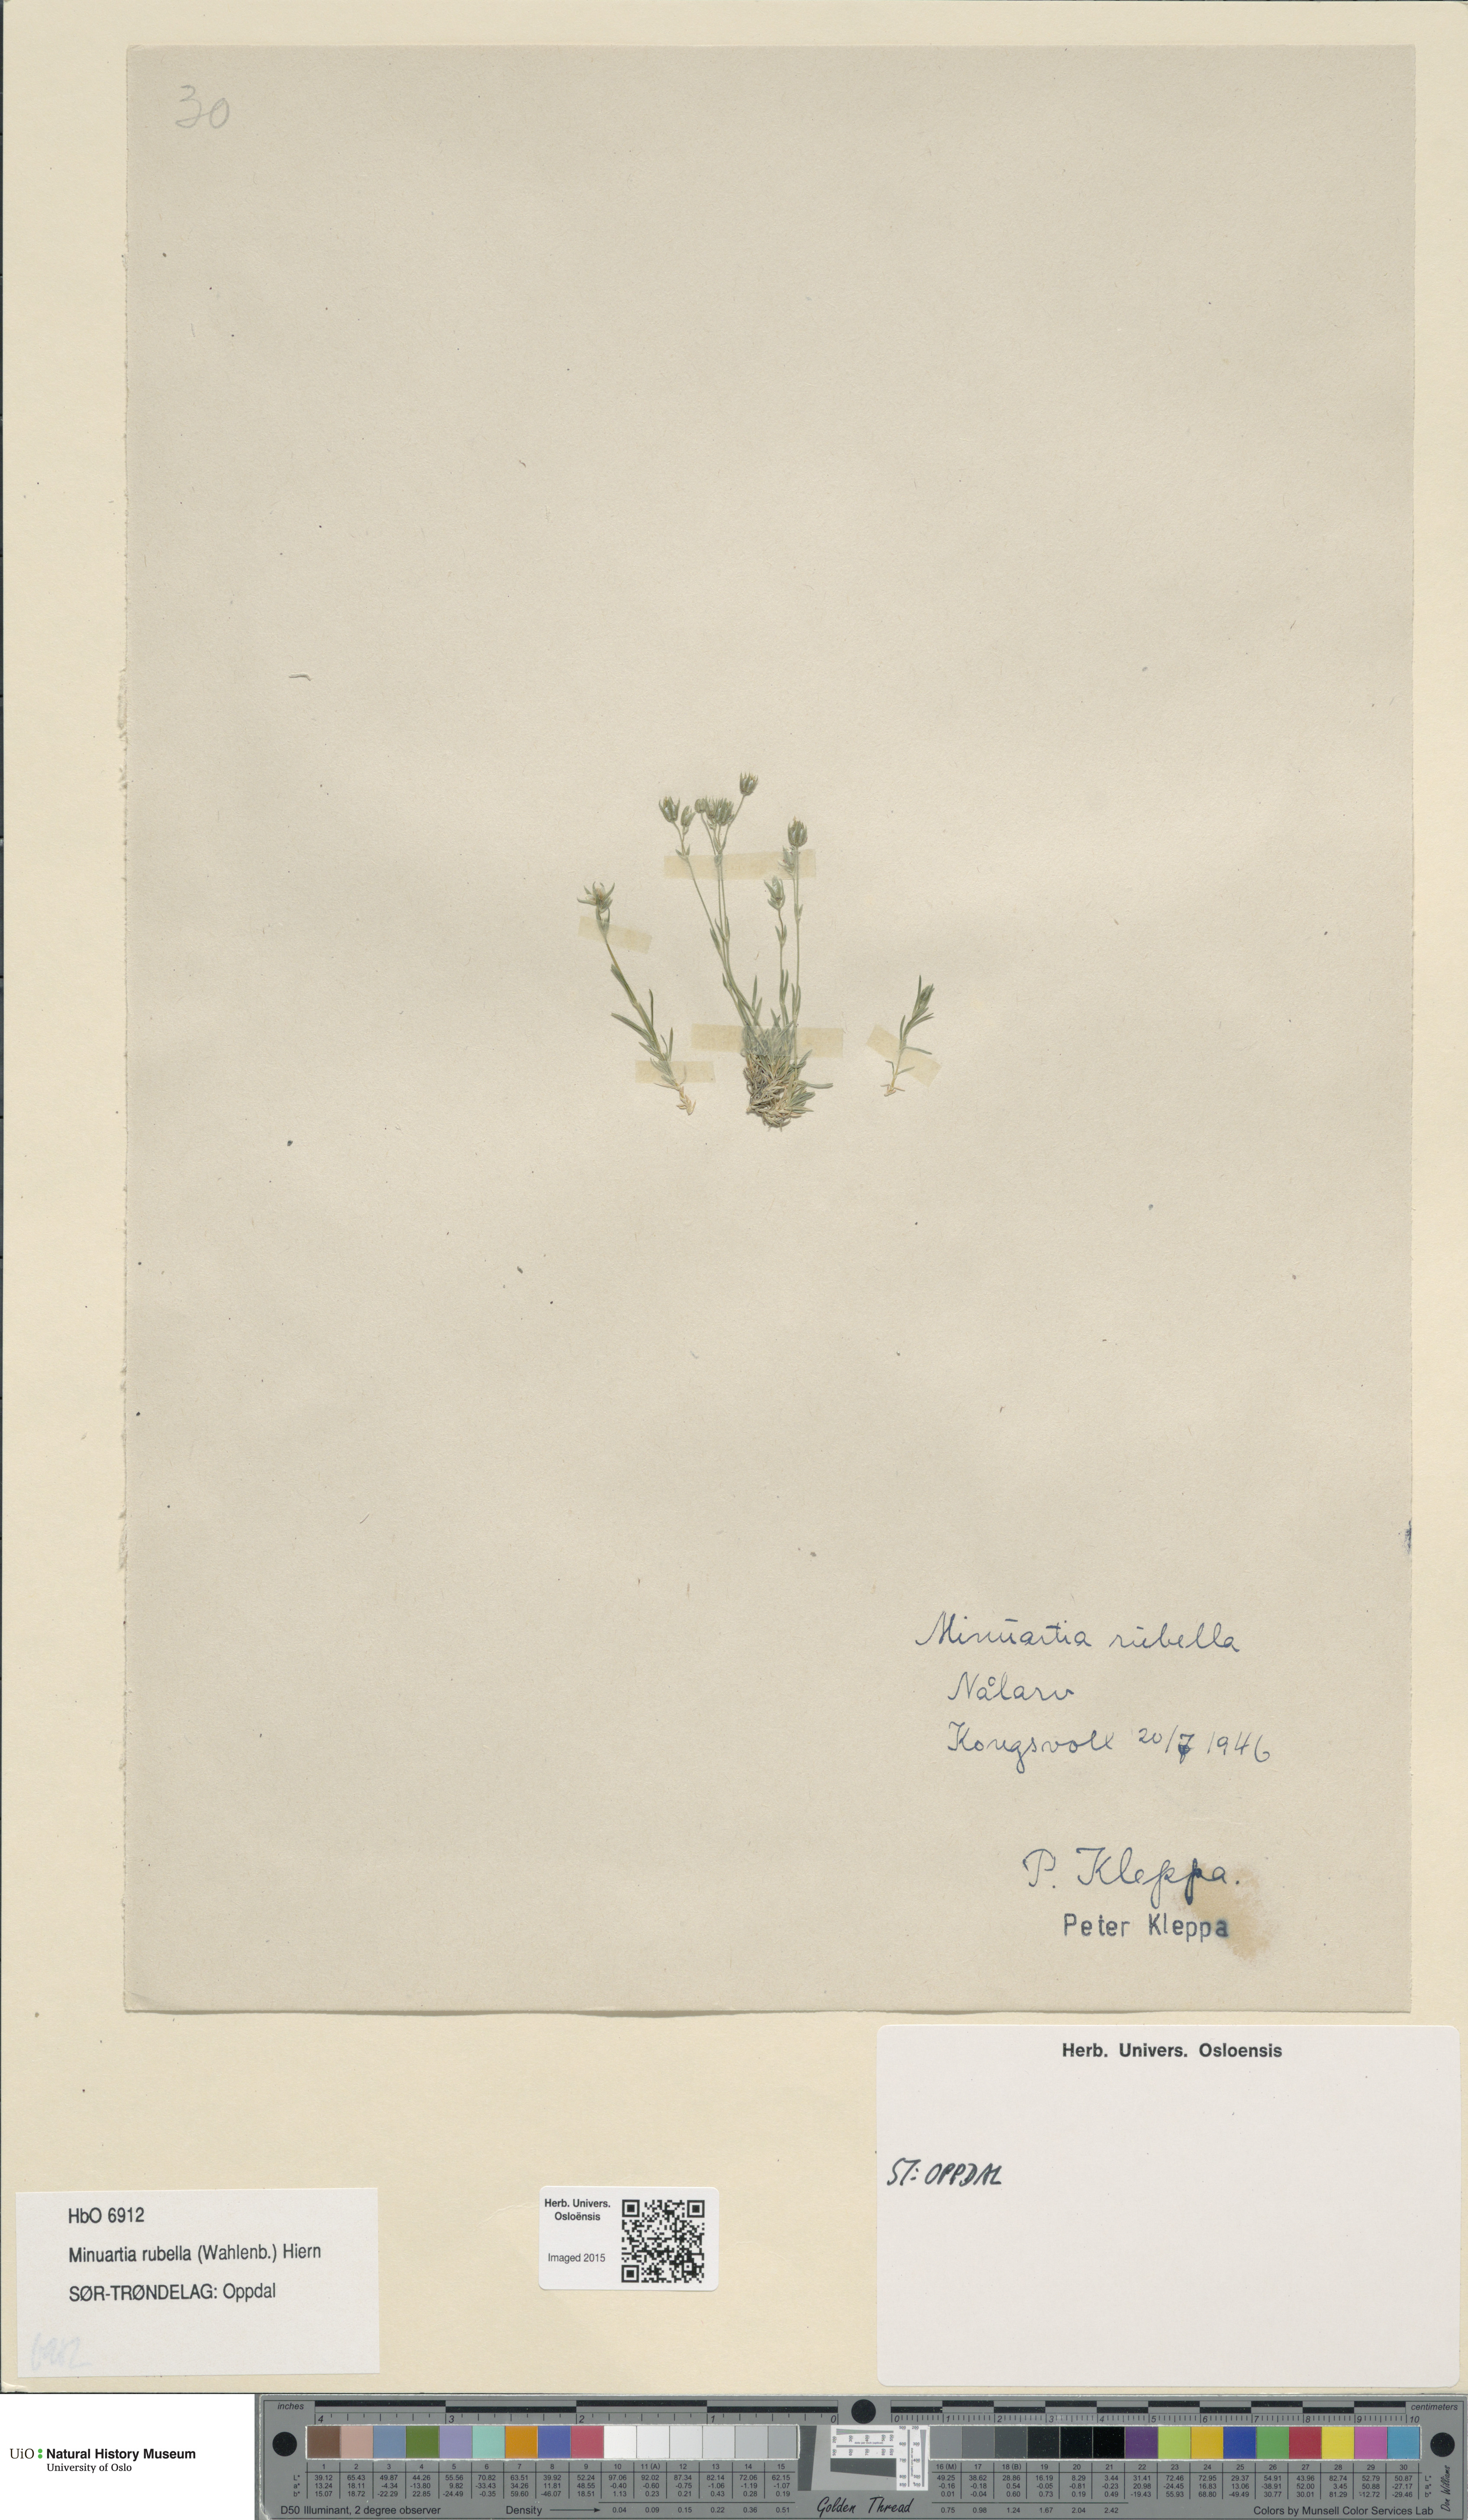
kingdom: Plantae
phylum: Tracheophyta
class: Magnoliopsida
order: Caryophyllales
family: Caryophyllaceae
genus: Sabulina
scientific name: Sabulina rubella
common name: Beautiful sandwort
